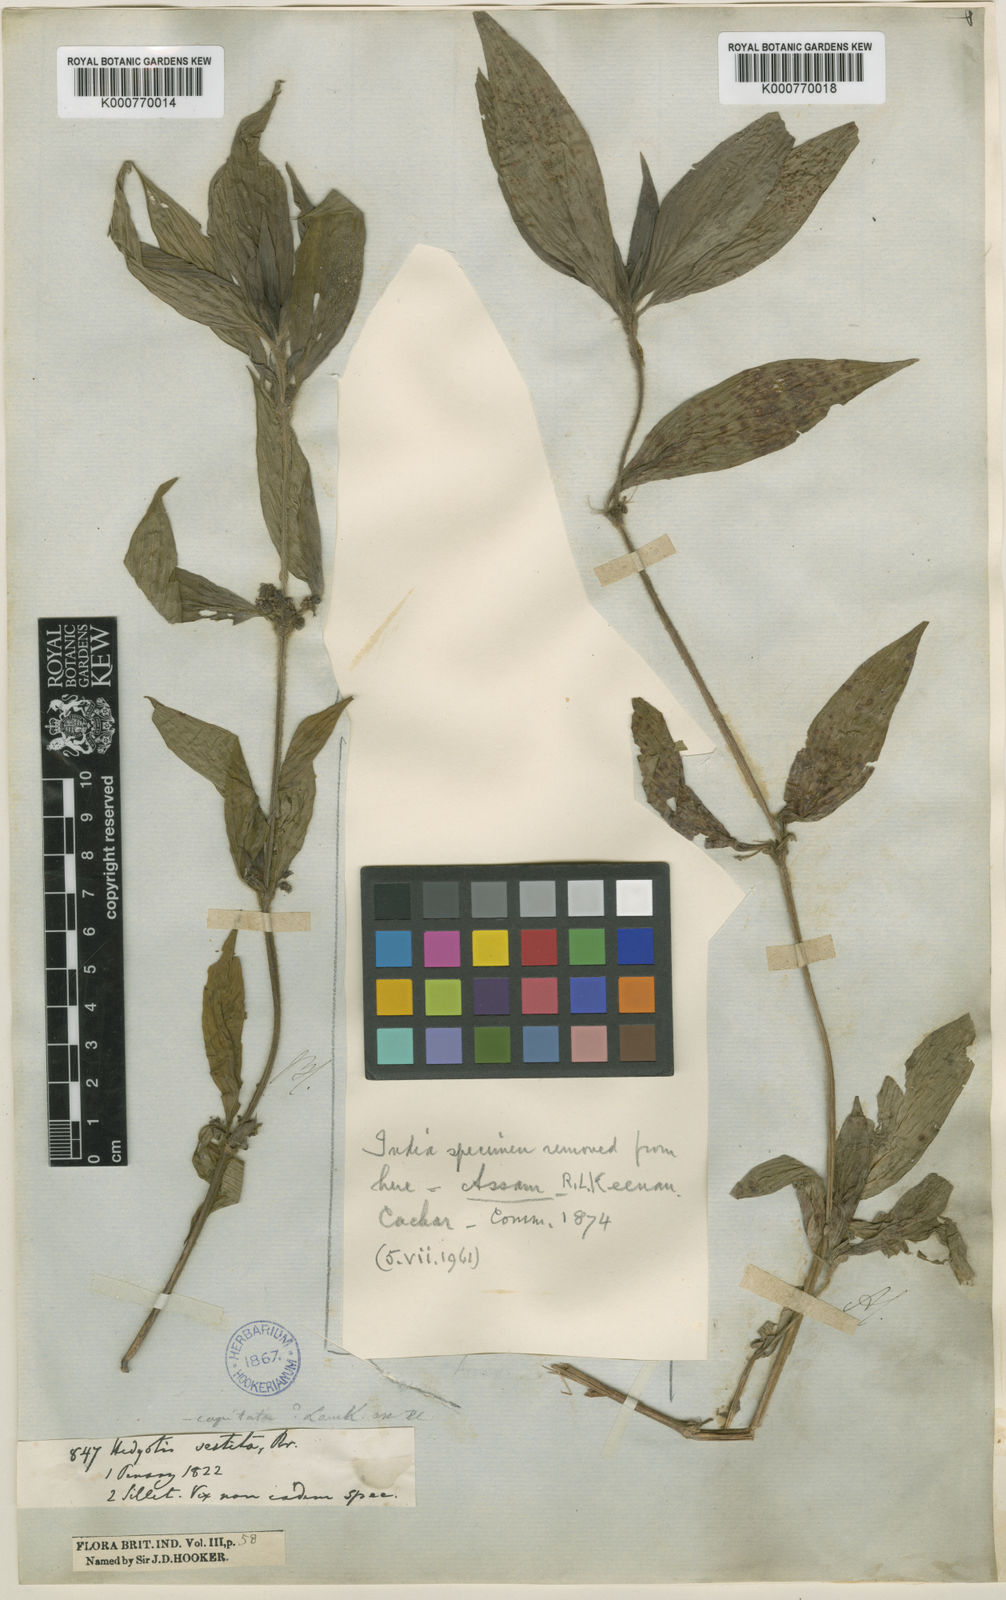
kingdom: Plantae
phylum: Tracheophyta
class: Magnoliopsida
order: Gentianales
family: Rubiaceae
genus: Exallage
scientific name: Exallage
